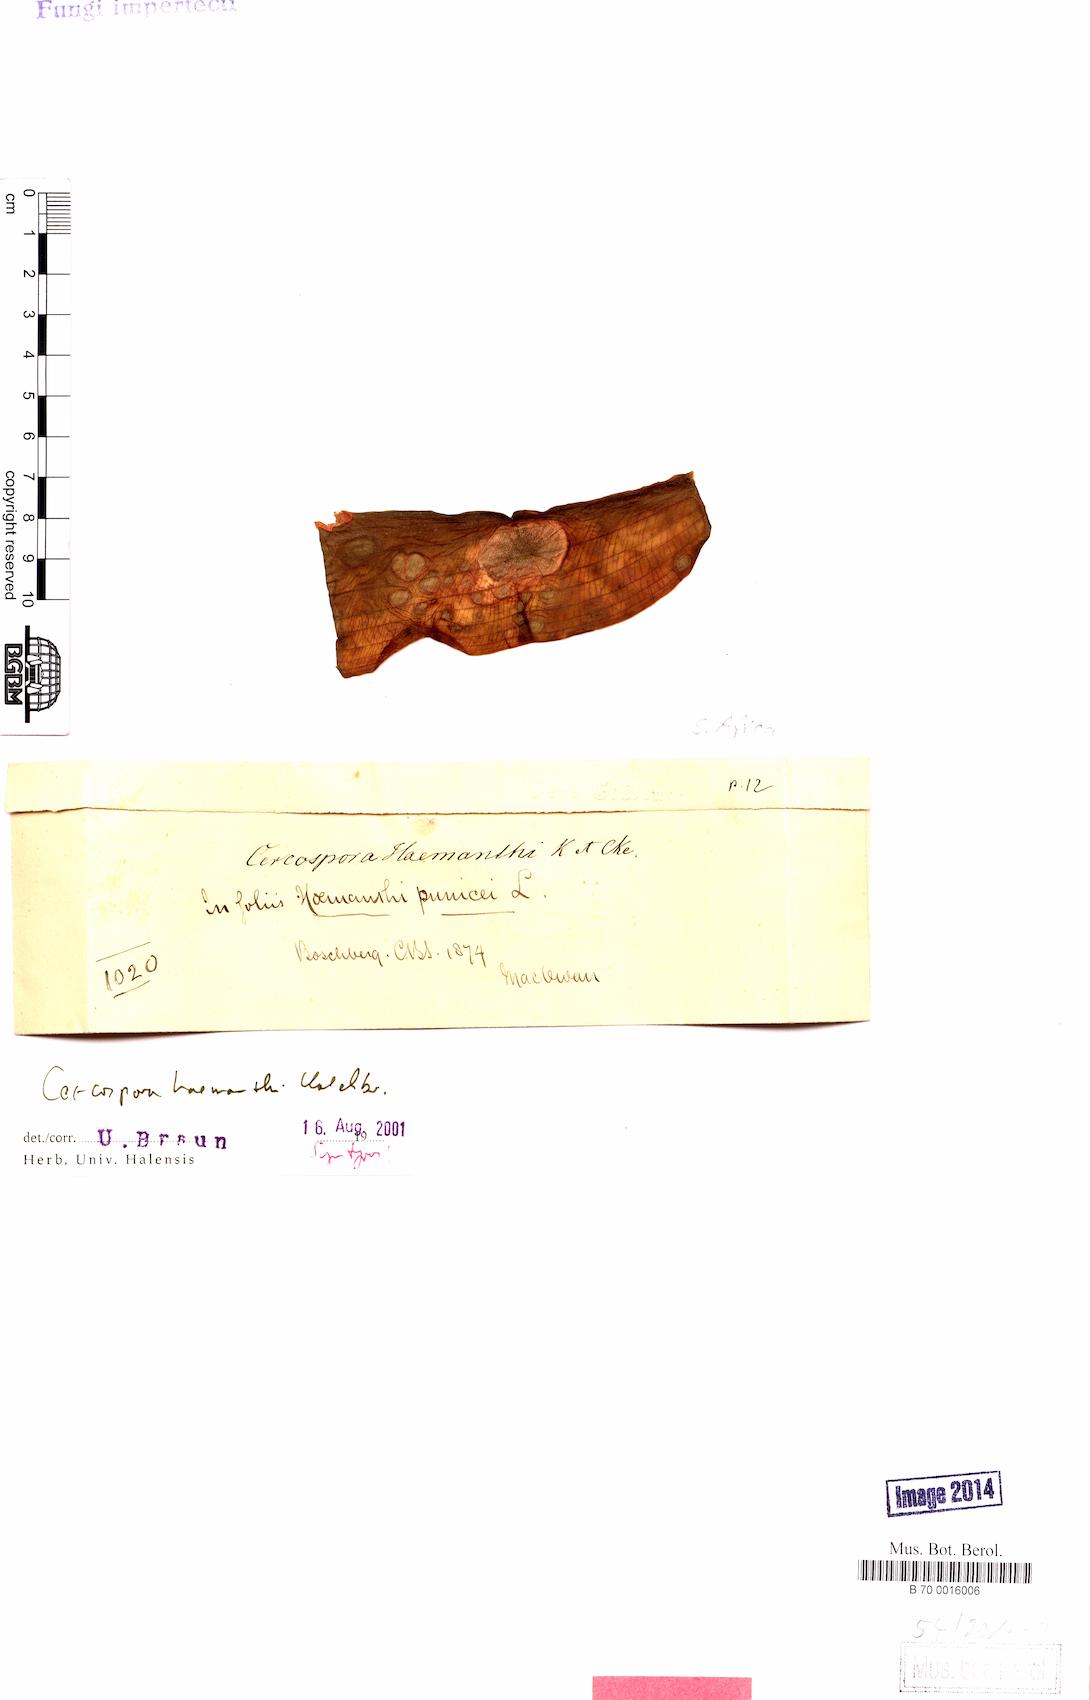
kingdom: Fungi
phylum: Ascomycota
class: Dothideomycetes
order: Mycosphaerellales
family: Mycosphaerellaceae
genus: Cercospora
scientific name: Cercospora
